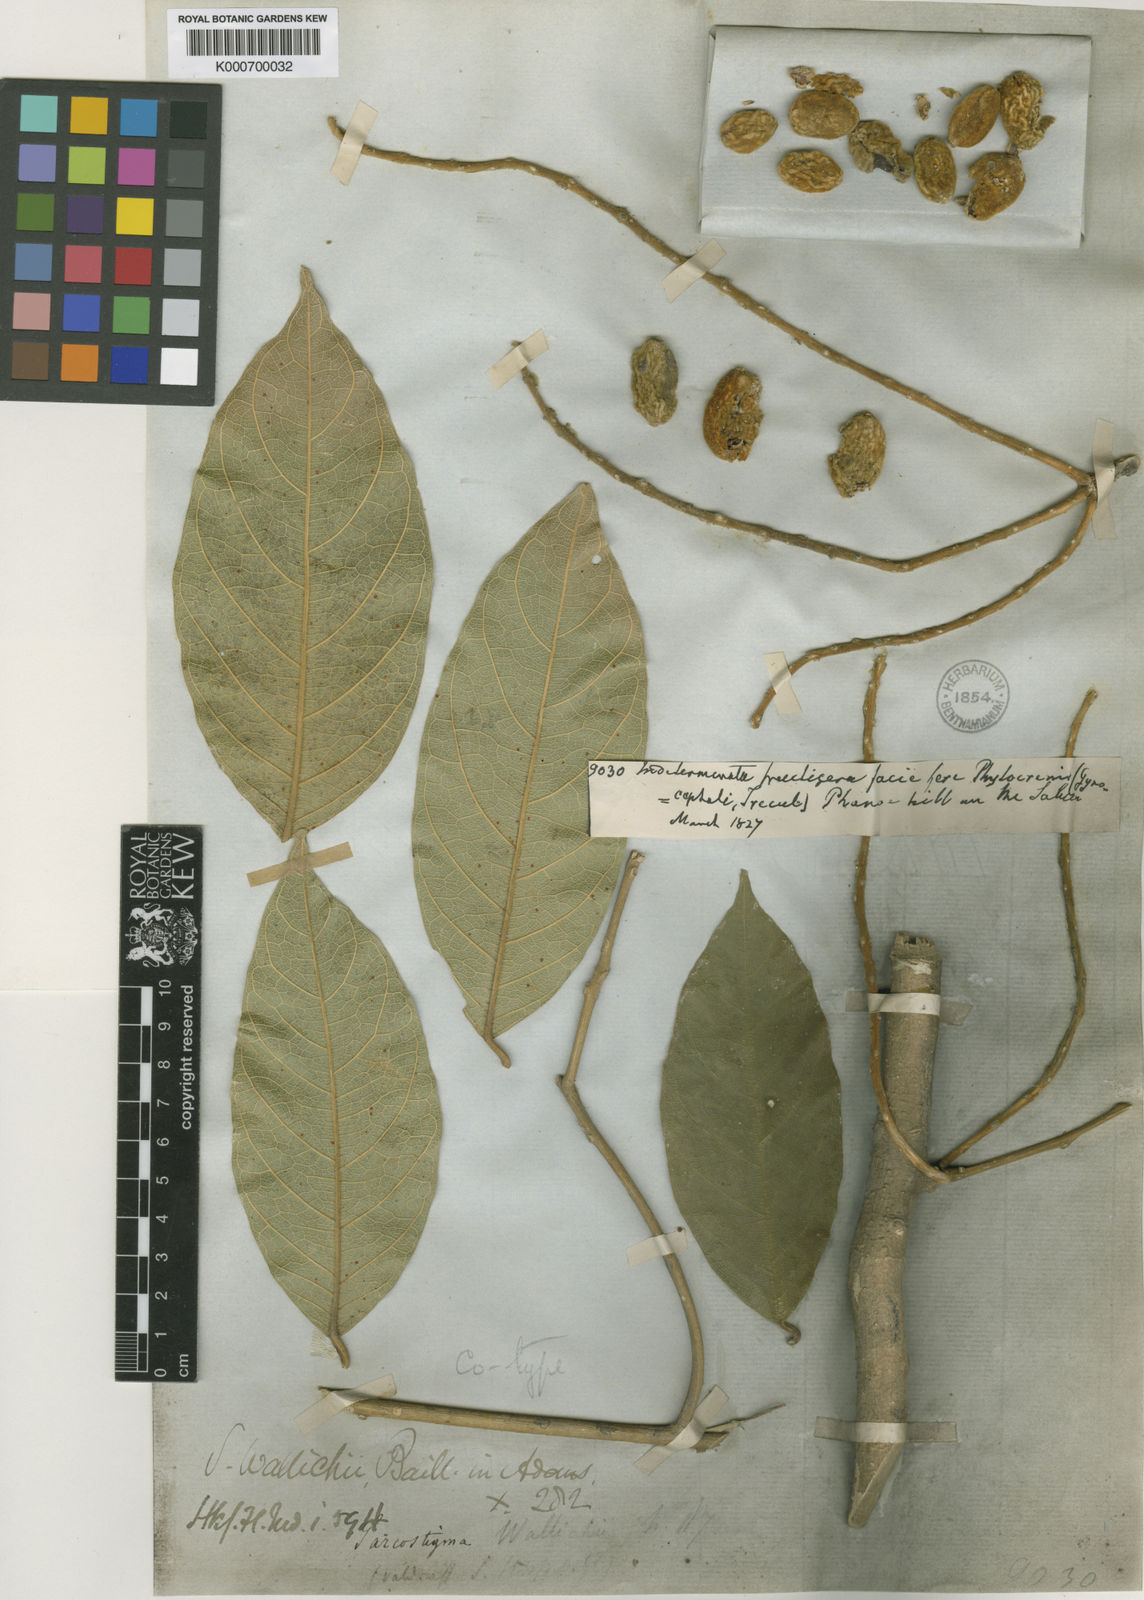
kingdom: Plantae
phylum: Tracheophyta
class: Magnoliopsida
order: Icacinales
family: Icacinaceae
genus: Sarcostigma
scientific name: Sarcostigma kleinii
